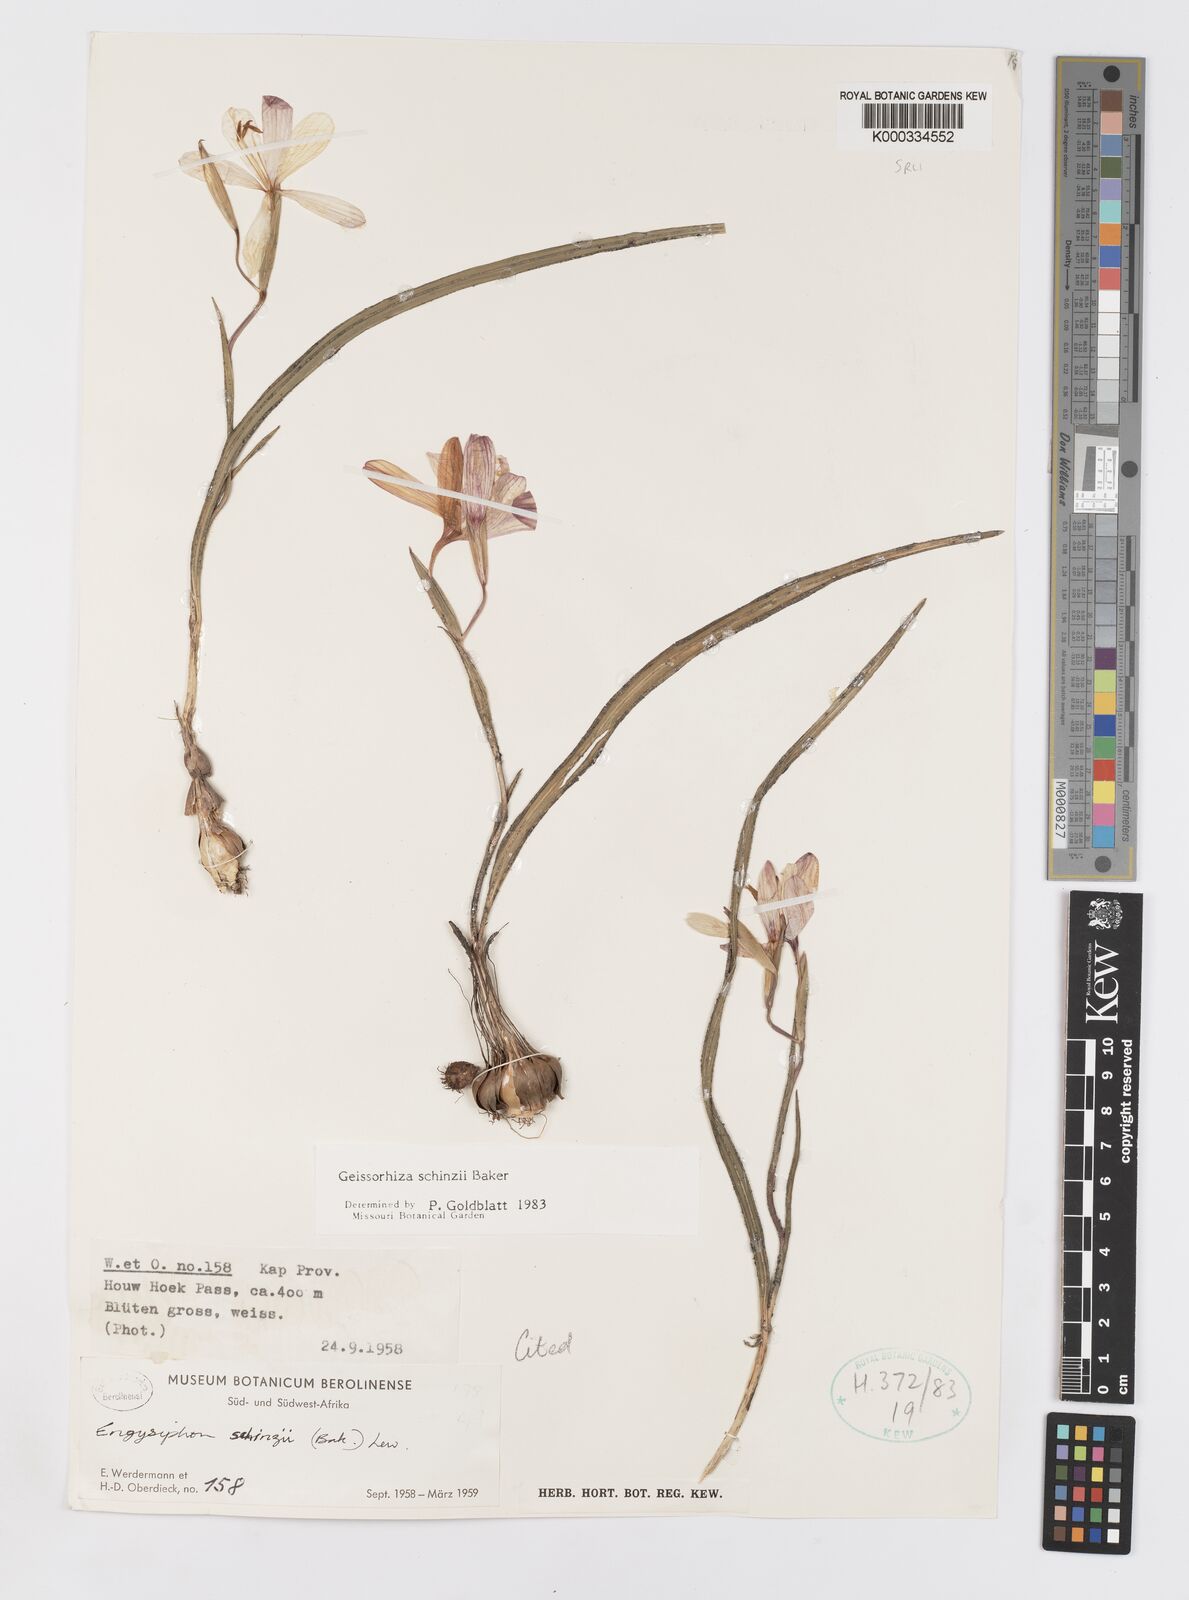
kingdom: Plantae
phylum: Tracheophyta
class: Liliopsida
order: Asparagales
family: Iridaceae
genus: Geissorhiza
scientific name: Geissorhiza schinzii
